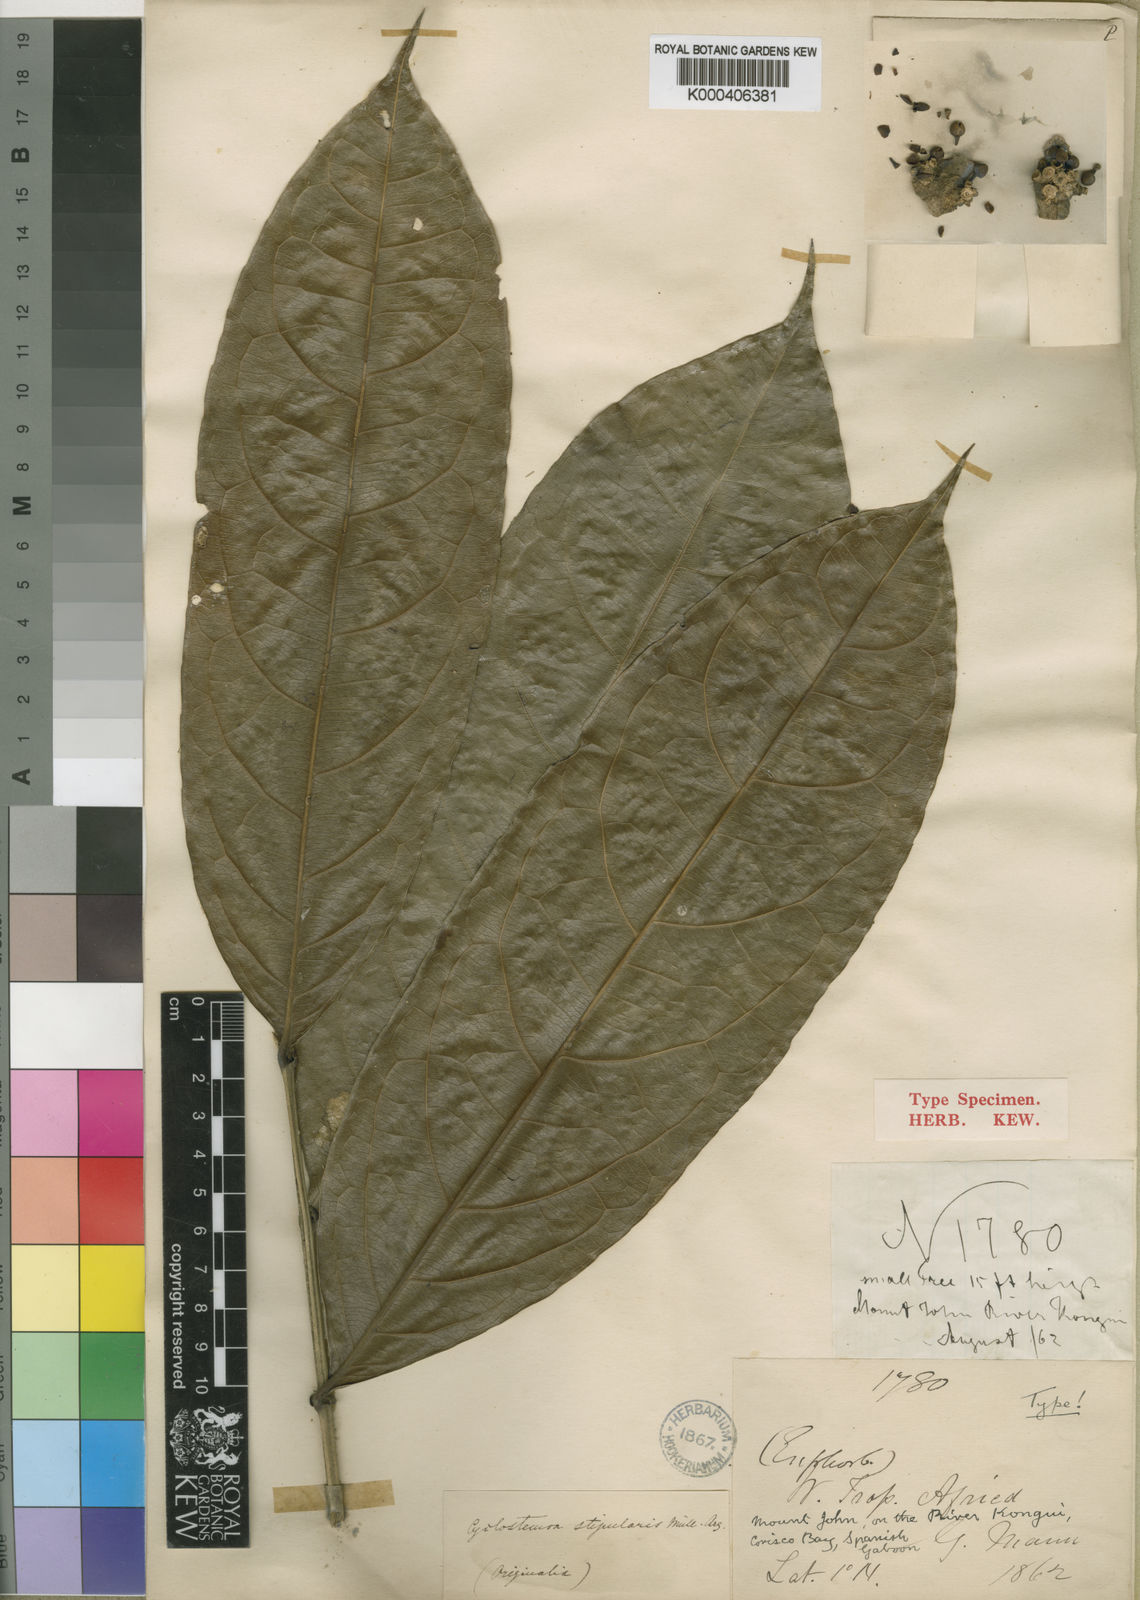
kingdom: Plantae
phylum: Tracheophyta
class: Magnoliopsida
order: Malpighiales
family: Putranjivaceae
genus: Drypetes
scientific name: Drypetes
